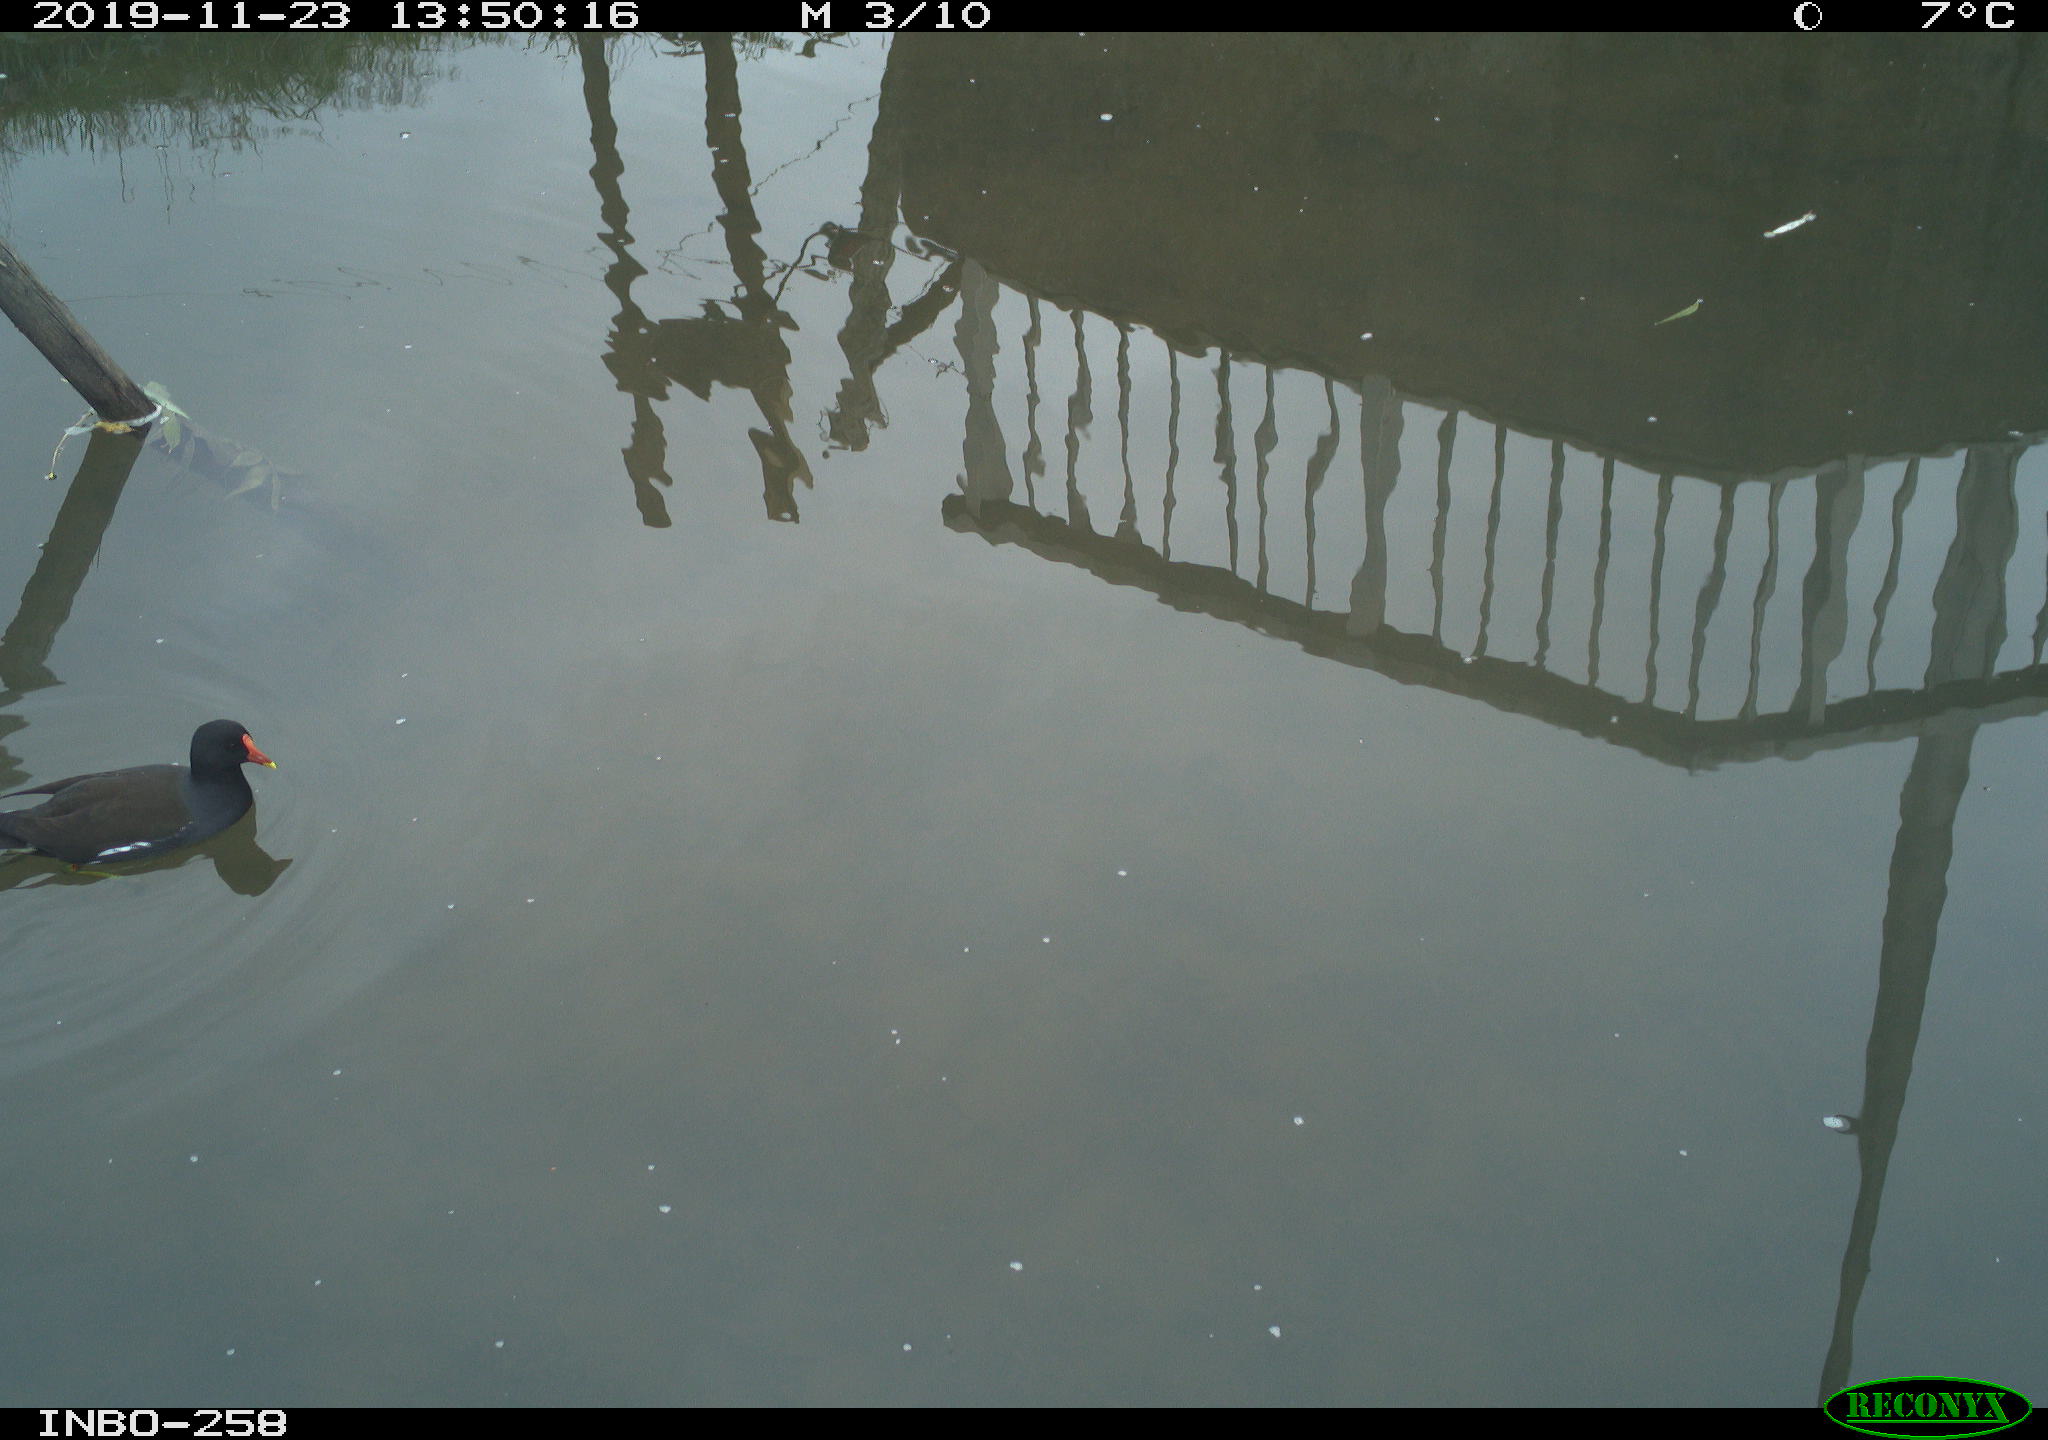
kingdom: Animalia
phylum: Chordata
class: Aves
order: Gruiformes
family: Rallidae
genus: Gallinula
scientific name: Gallinula chloropus
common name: Common moorhen
